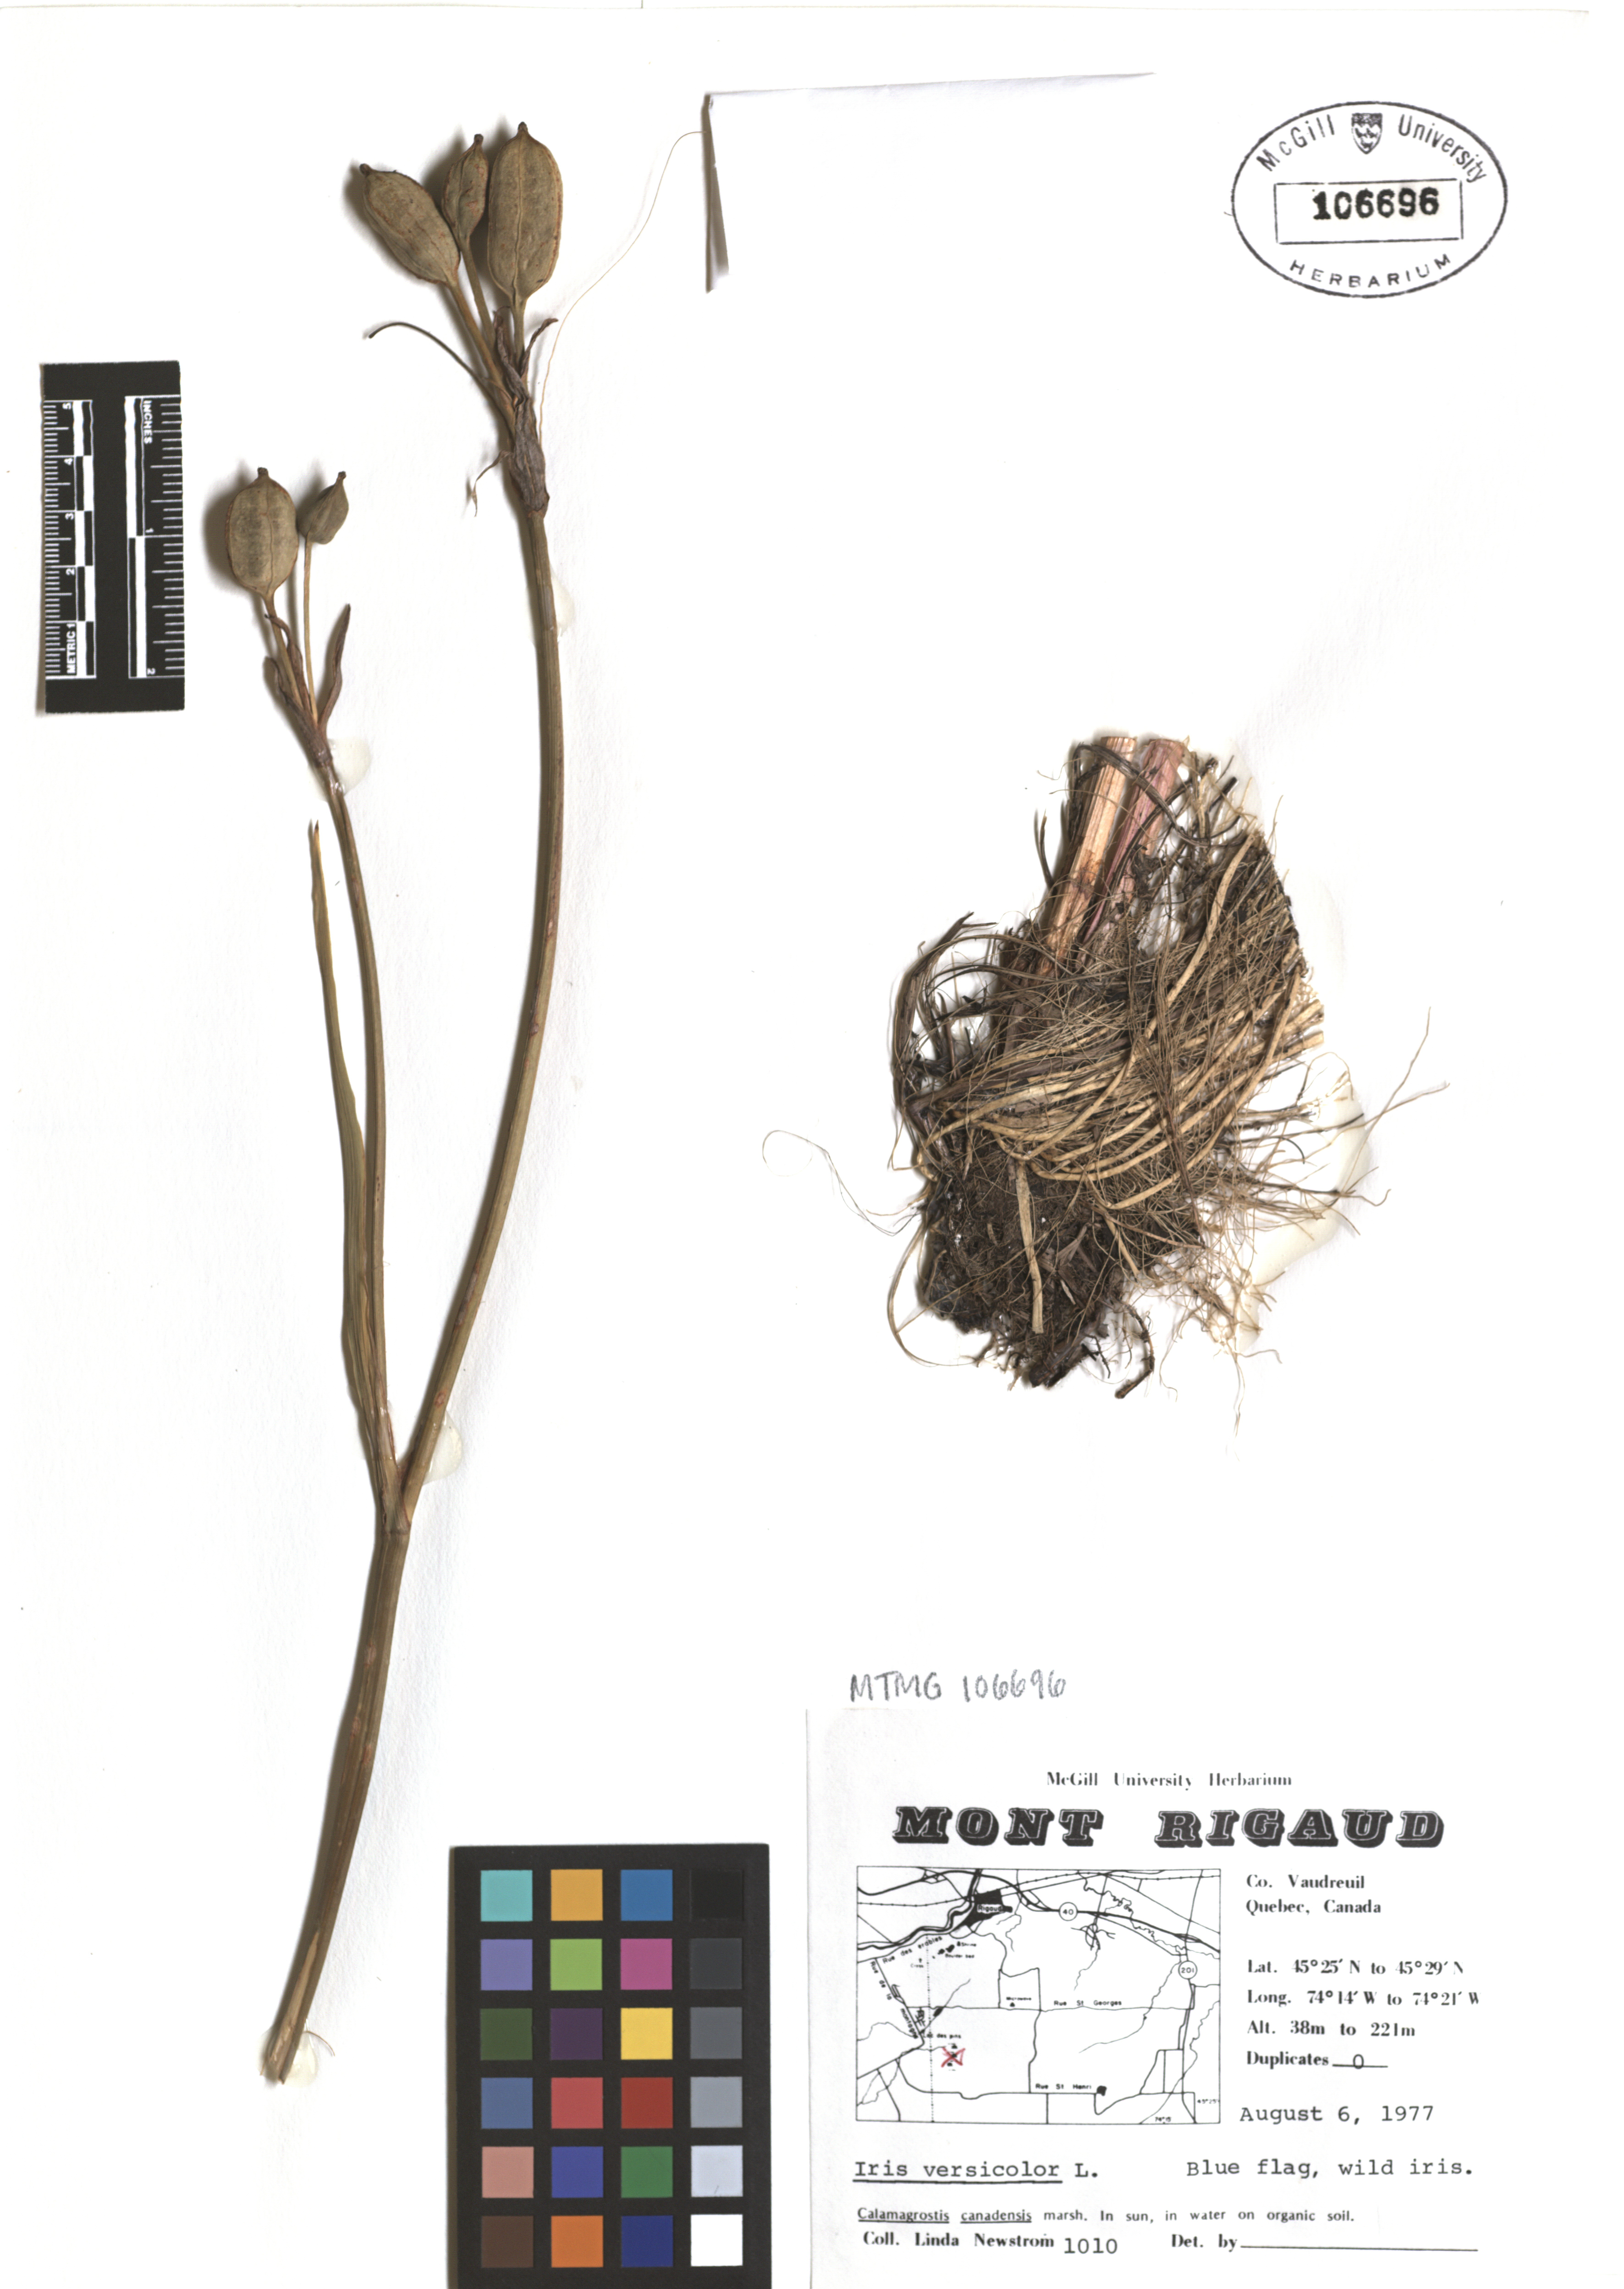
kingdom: Plantae
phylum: Tracheophyta
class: Liliopsida
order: Asparagales
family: Iridaceae
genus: Iris
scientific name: Iris versicolor
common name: Purple iris
